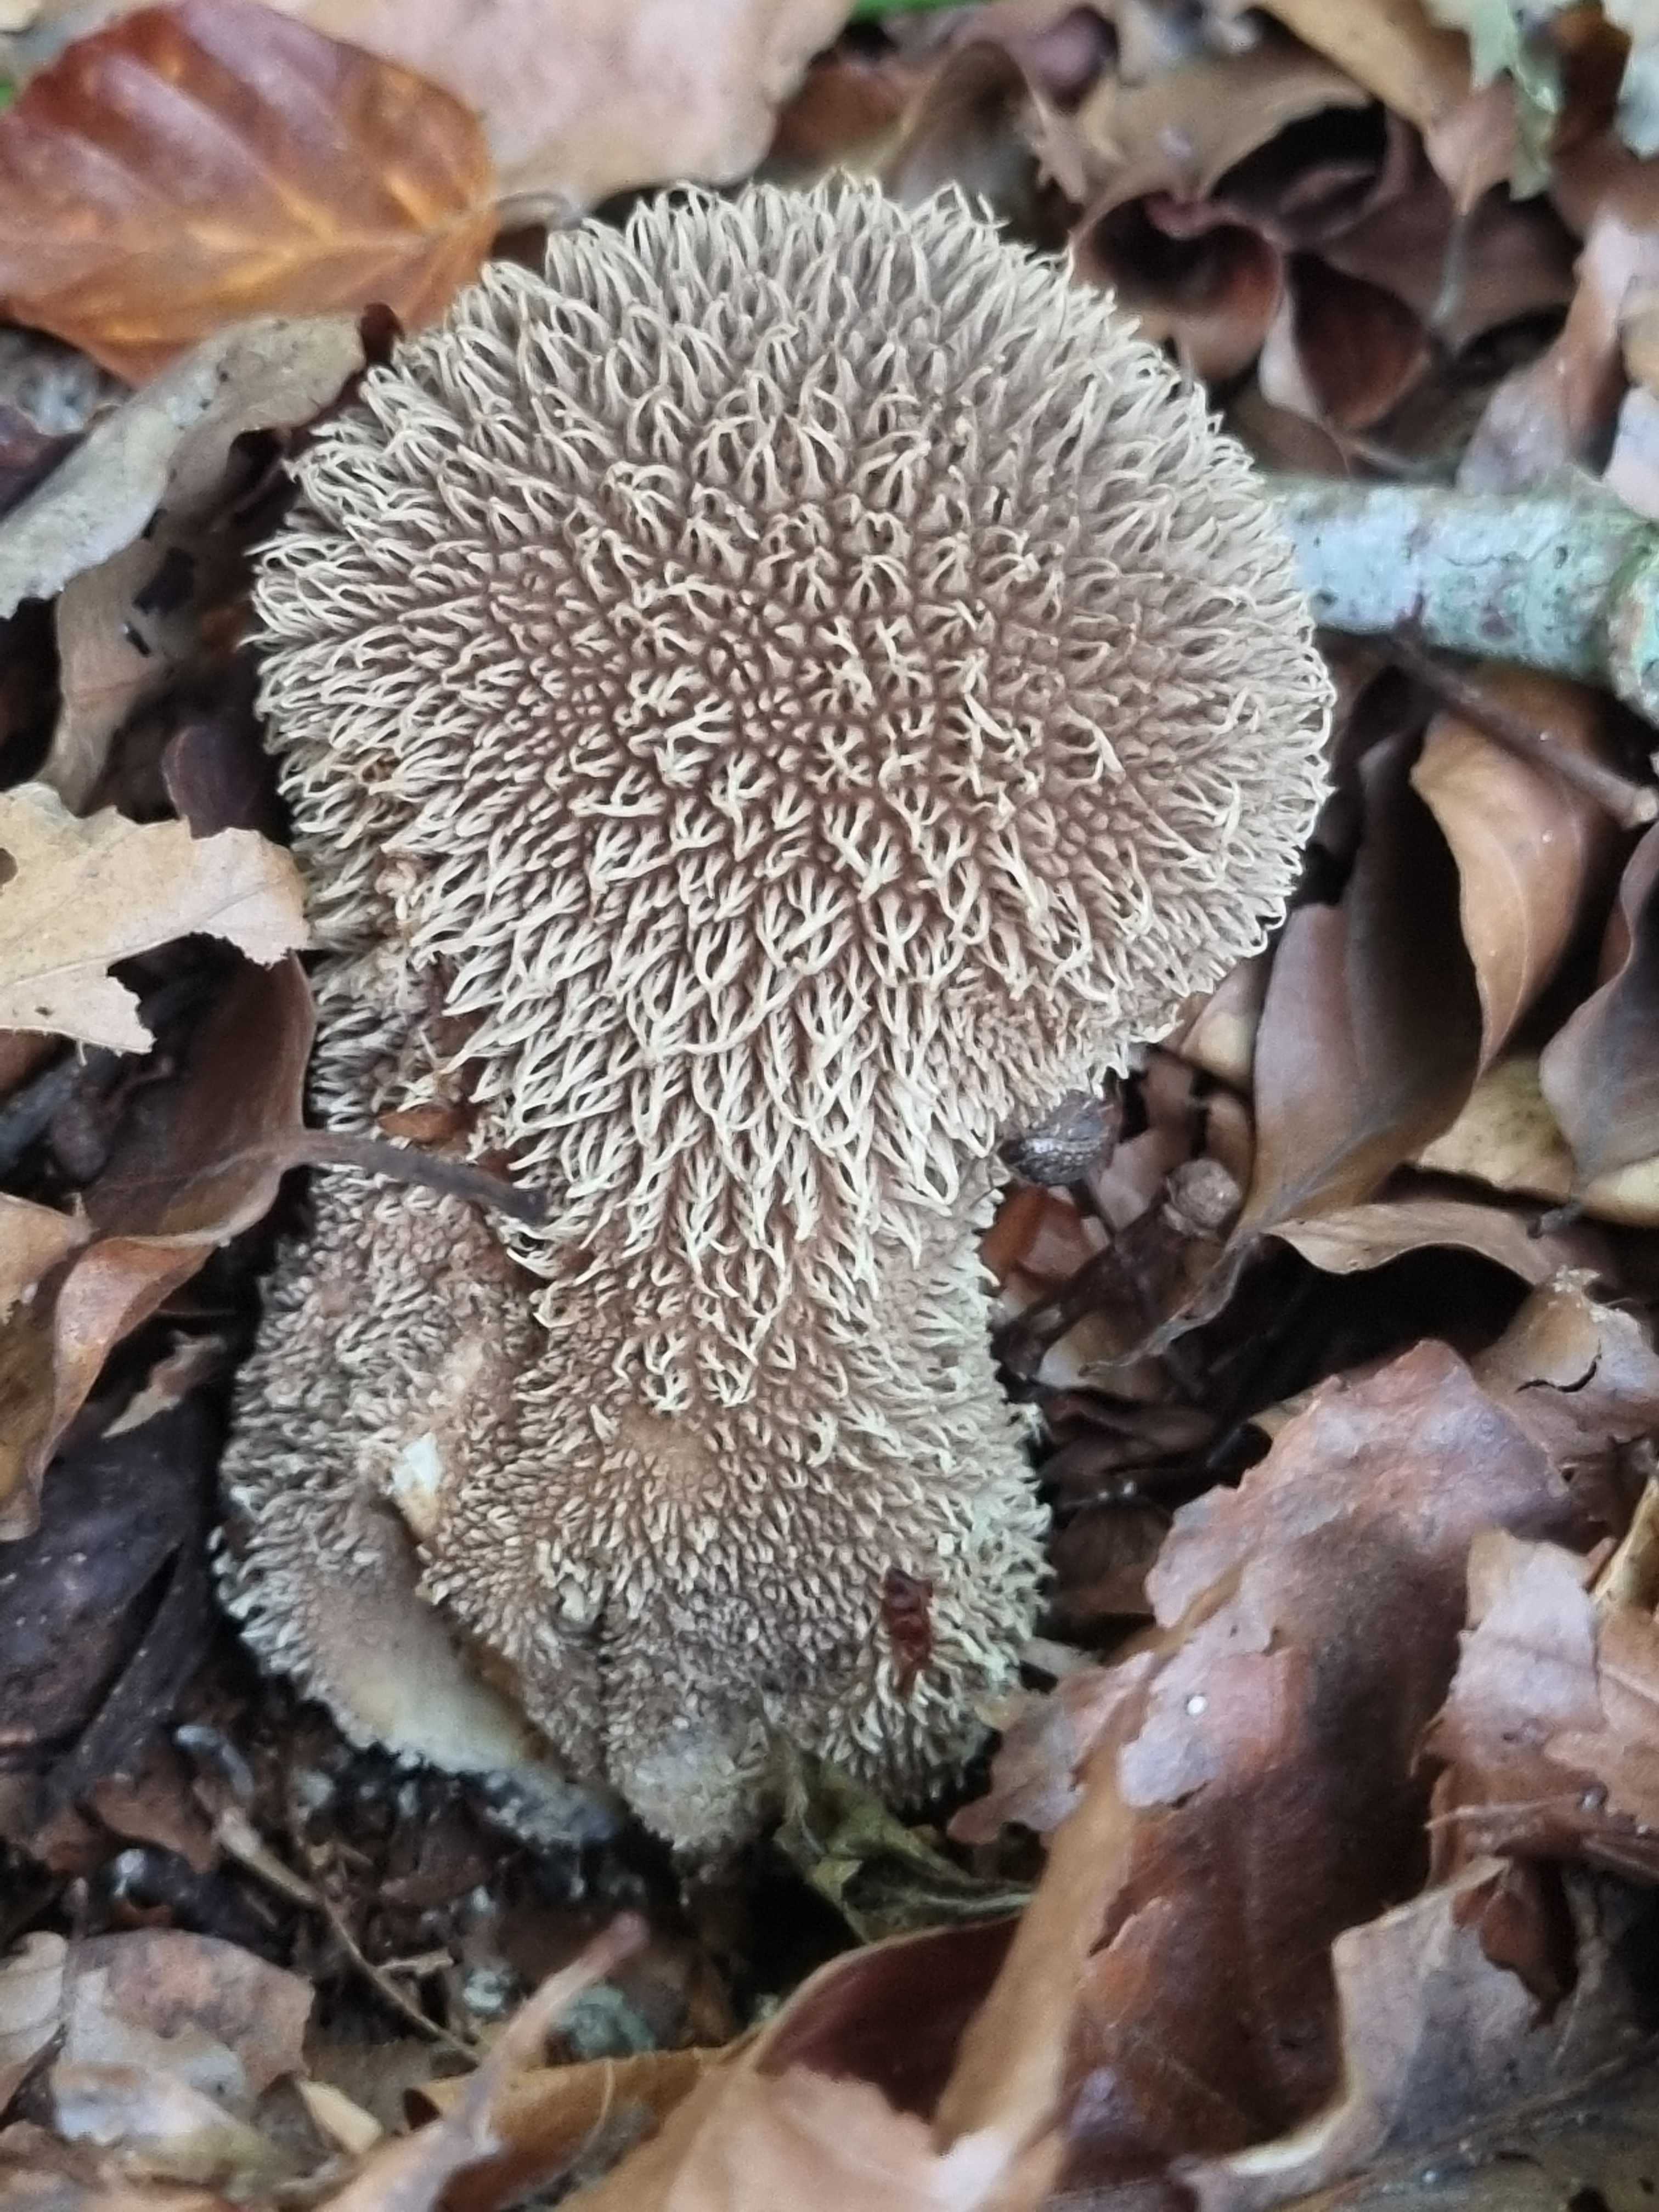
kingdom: Fungi
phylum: Basidiomycota
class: Agaricomycetes
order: Agaricales
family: Lycoperdaceae
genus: Lycoperdon
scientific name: Lycoperdon echinatum
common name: pindsvine-støvbold
